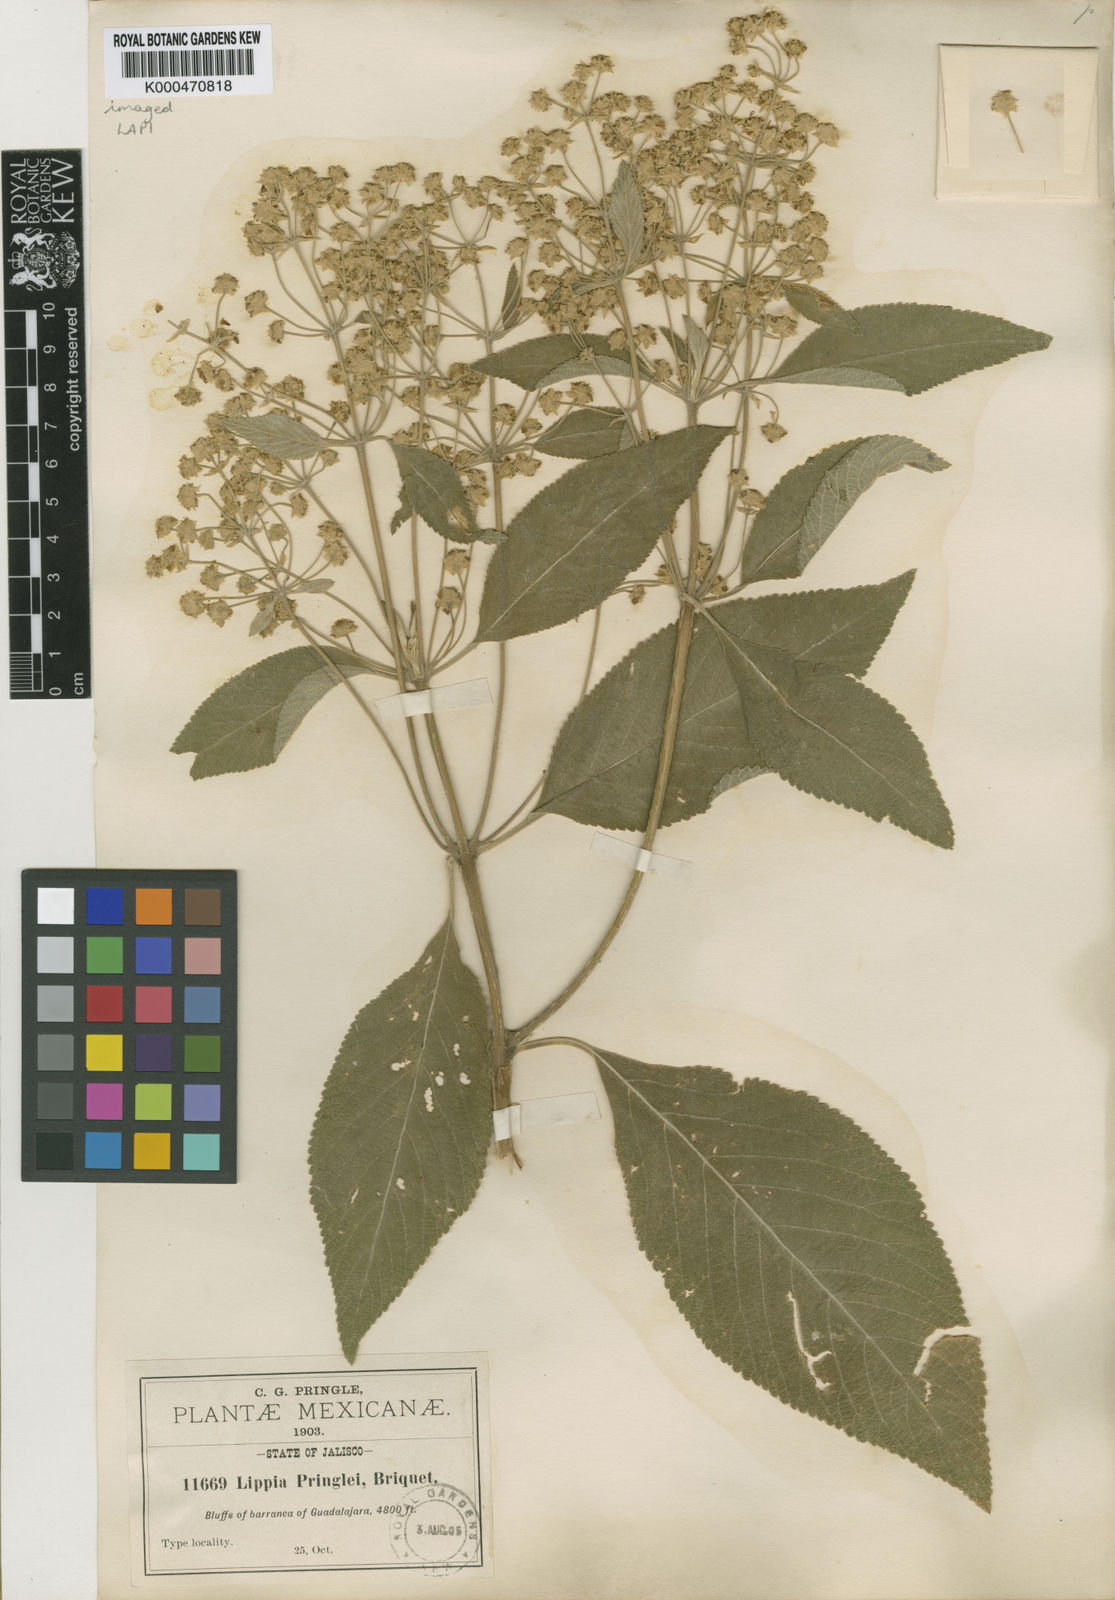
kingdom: Plantae
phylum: Tracheophyta
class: Magnoliopsida
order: Lamiales
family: Verbenaceae
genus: Lippia
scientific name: Lippia umbellata
